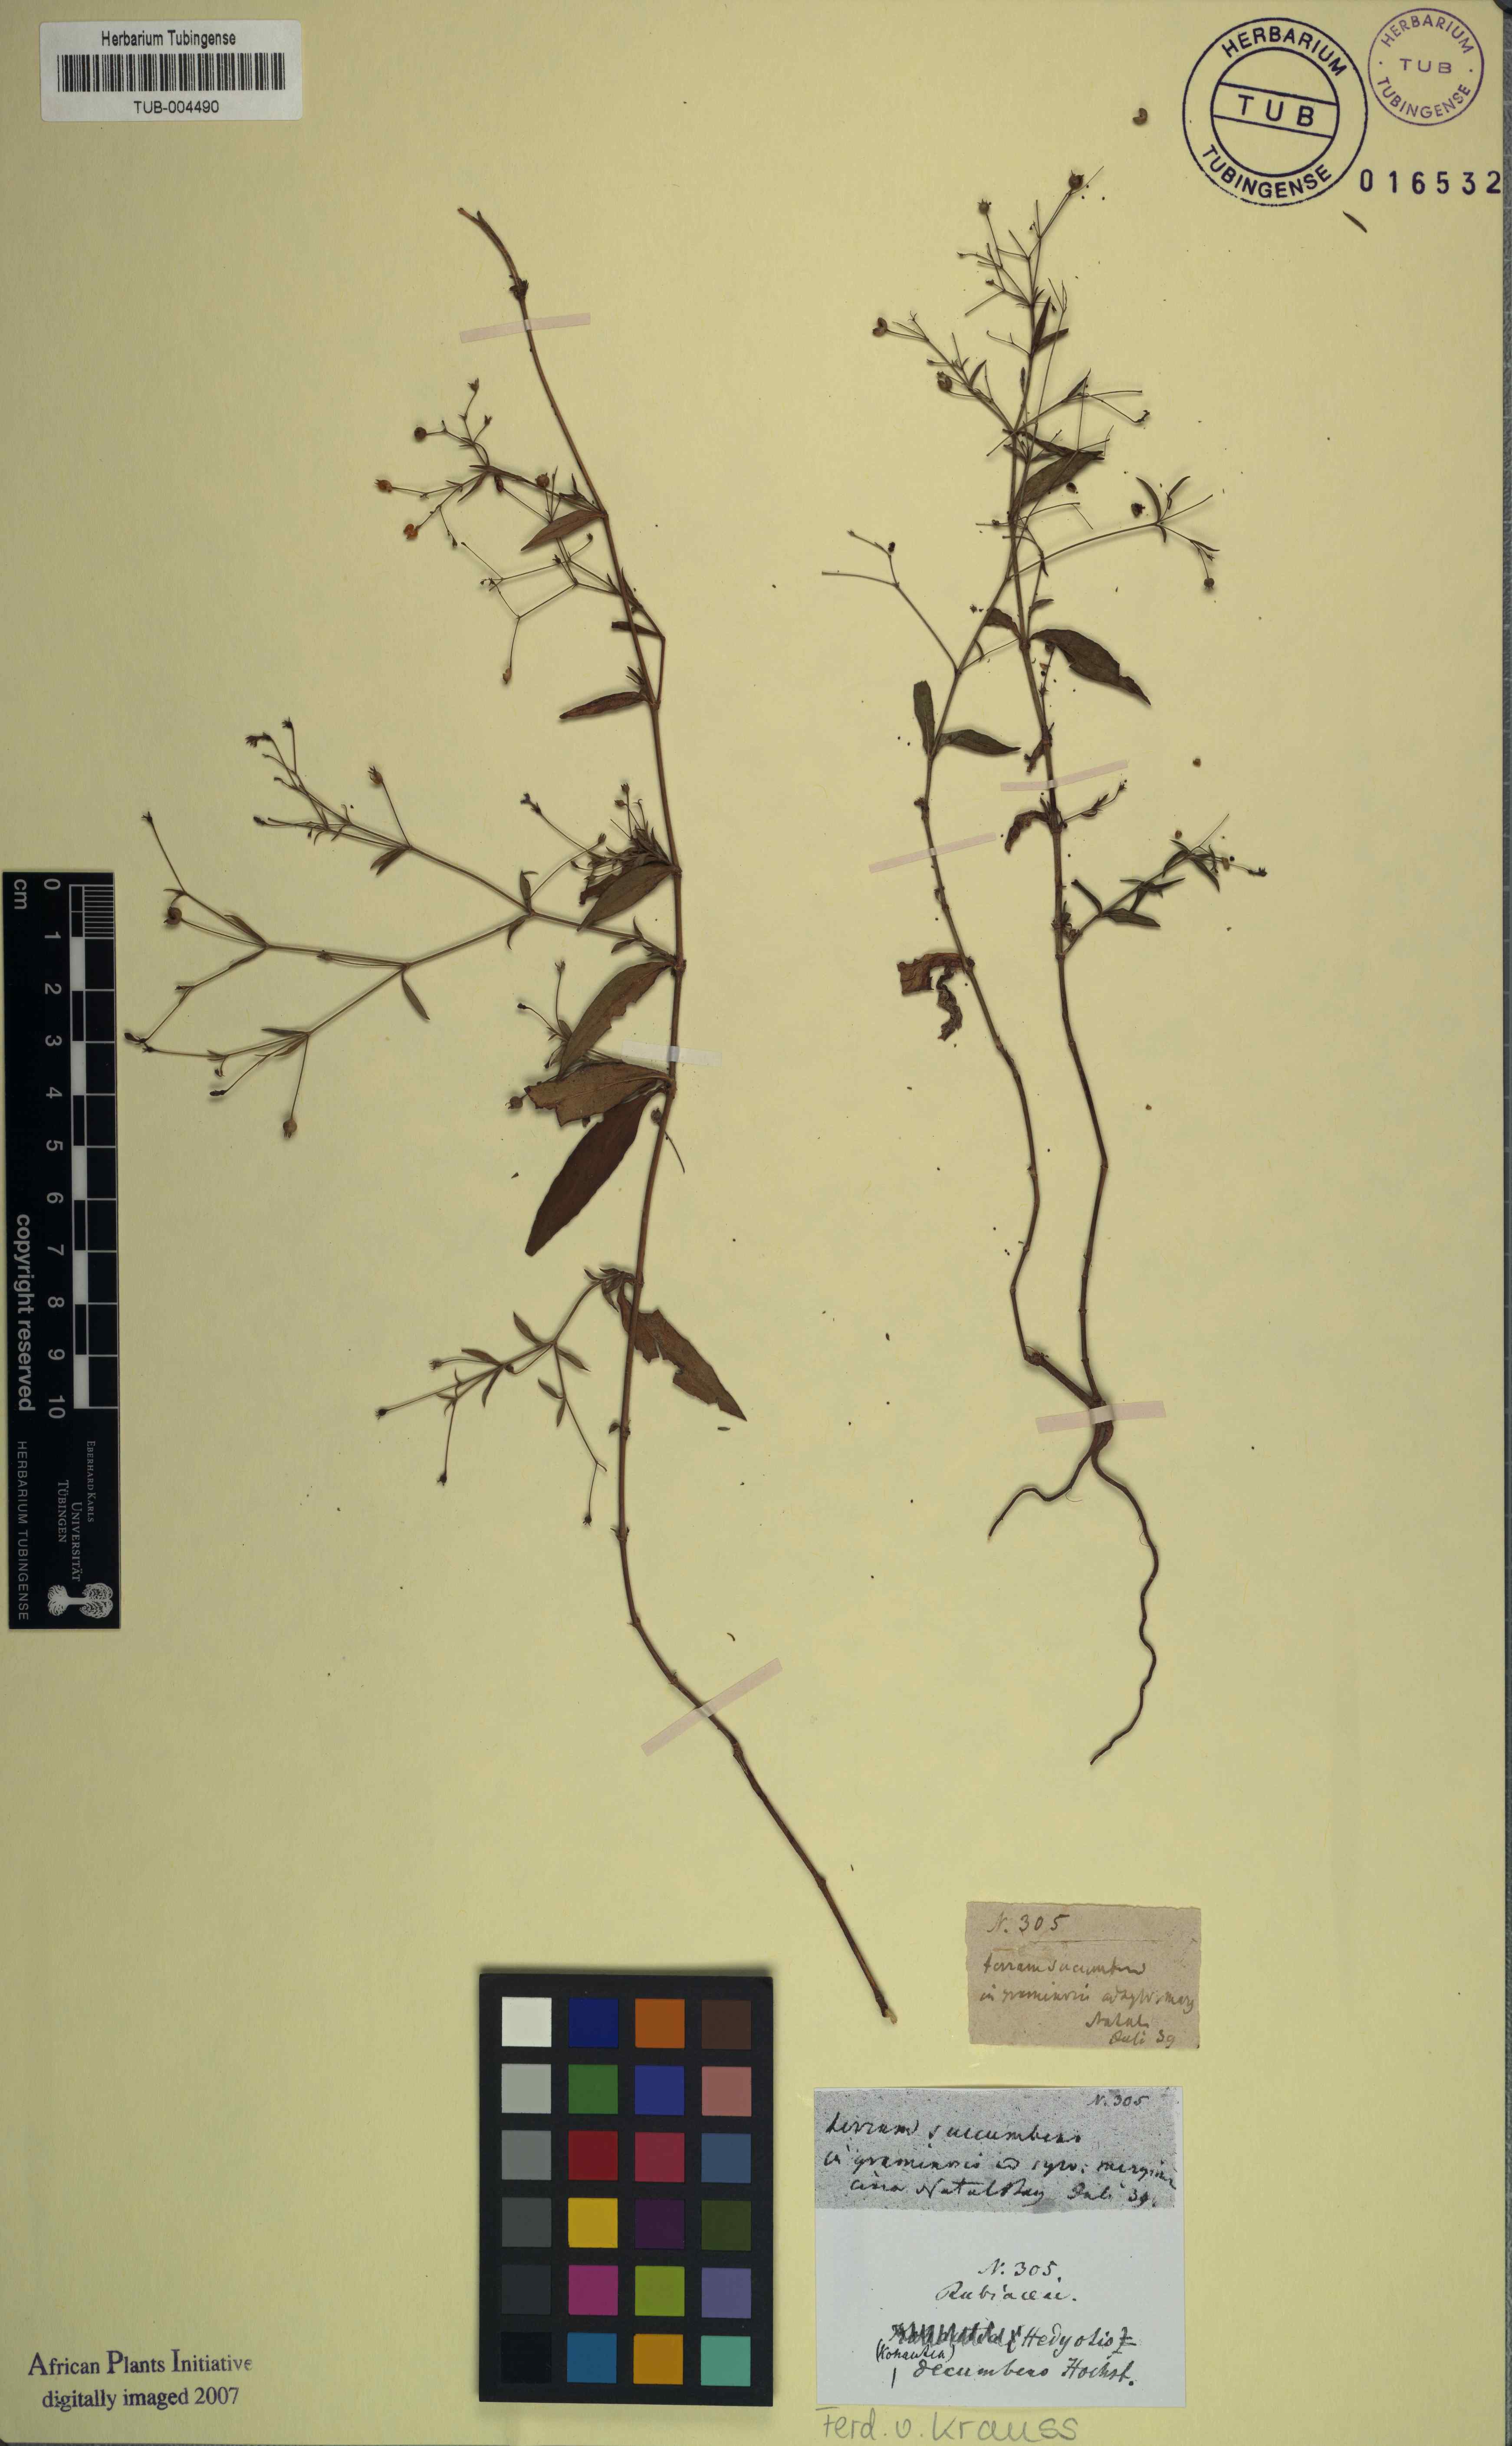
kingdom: Plantae
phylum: Tracheophyta
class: Magnoliopsida
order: Gentianales
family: Rubiaceae
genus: Oldenlandia
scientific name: Oldenlandia affinis
